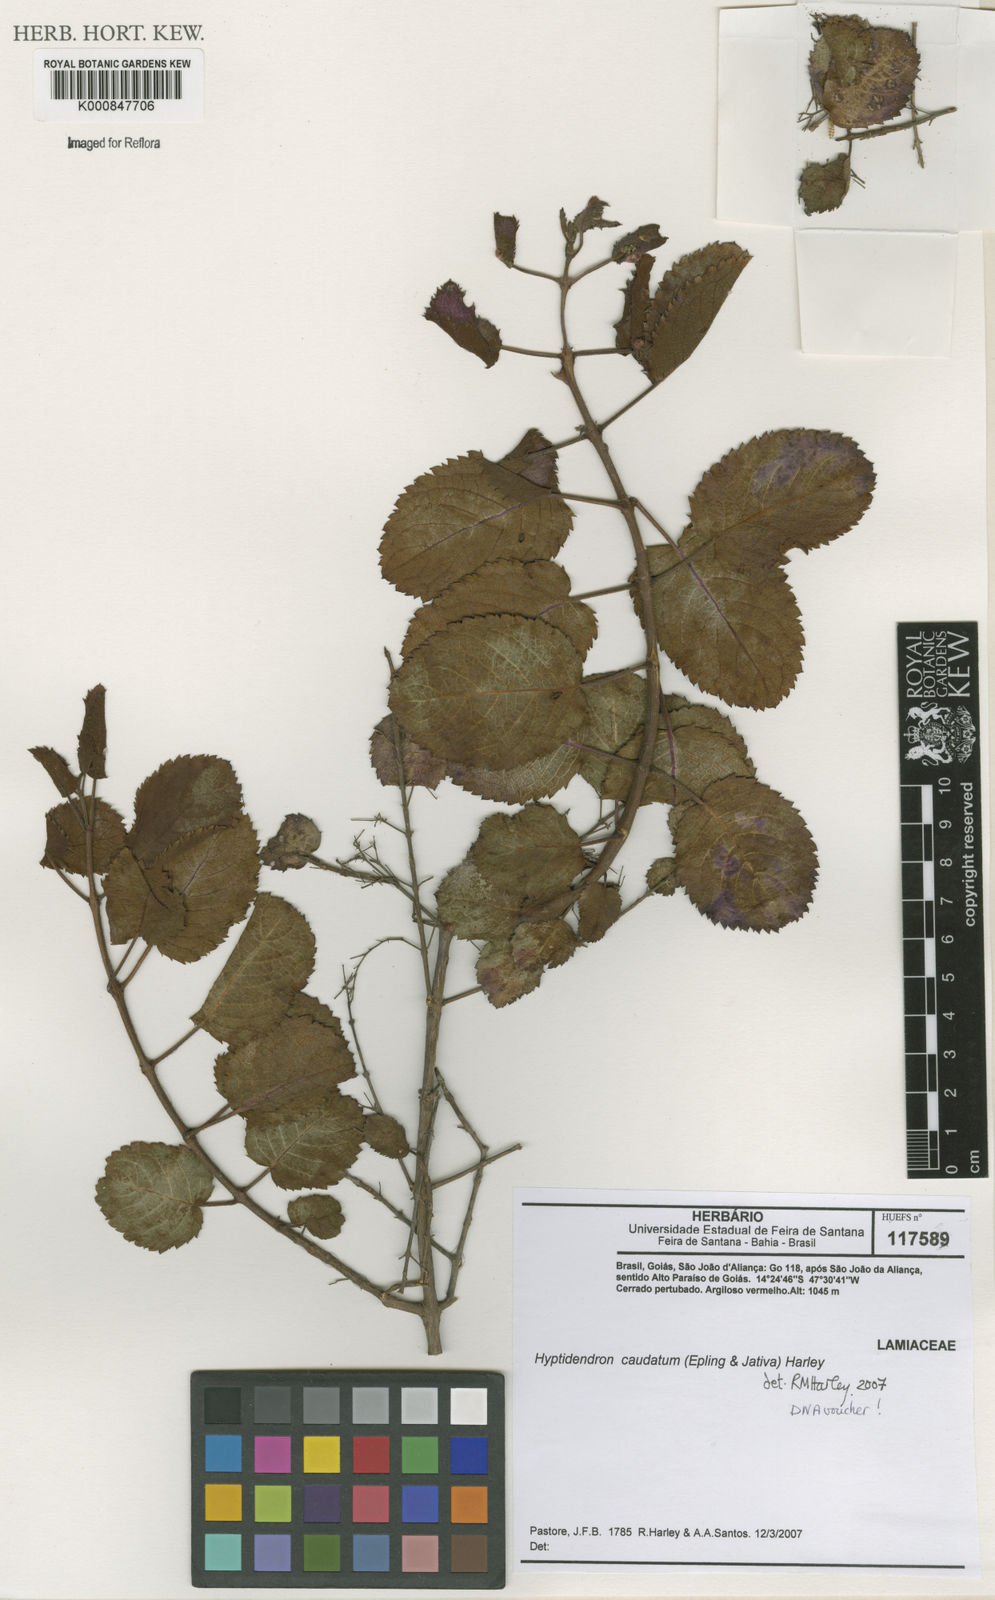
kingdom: Plantae
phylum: Tracheophyta
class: Magnoliopsida
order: Lamiales
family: Lamiaceae
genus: Hyptidendron
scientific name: Hyptidendron
